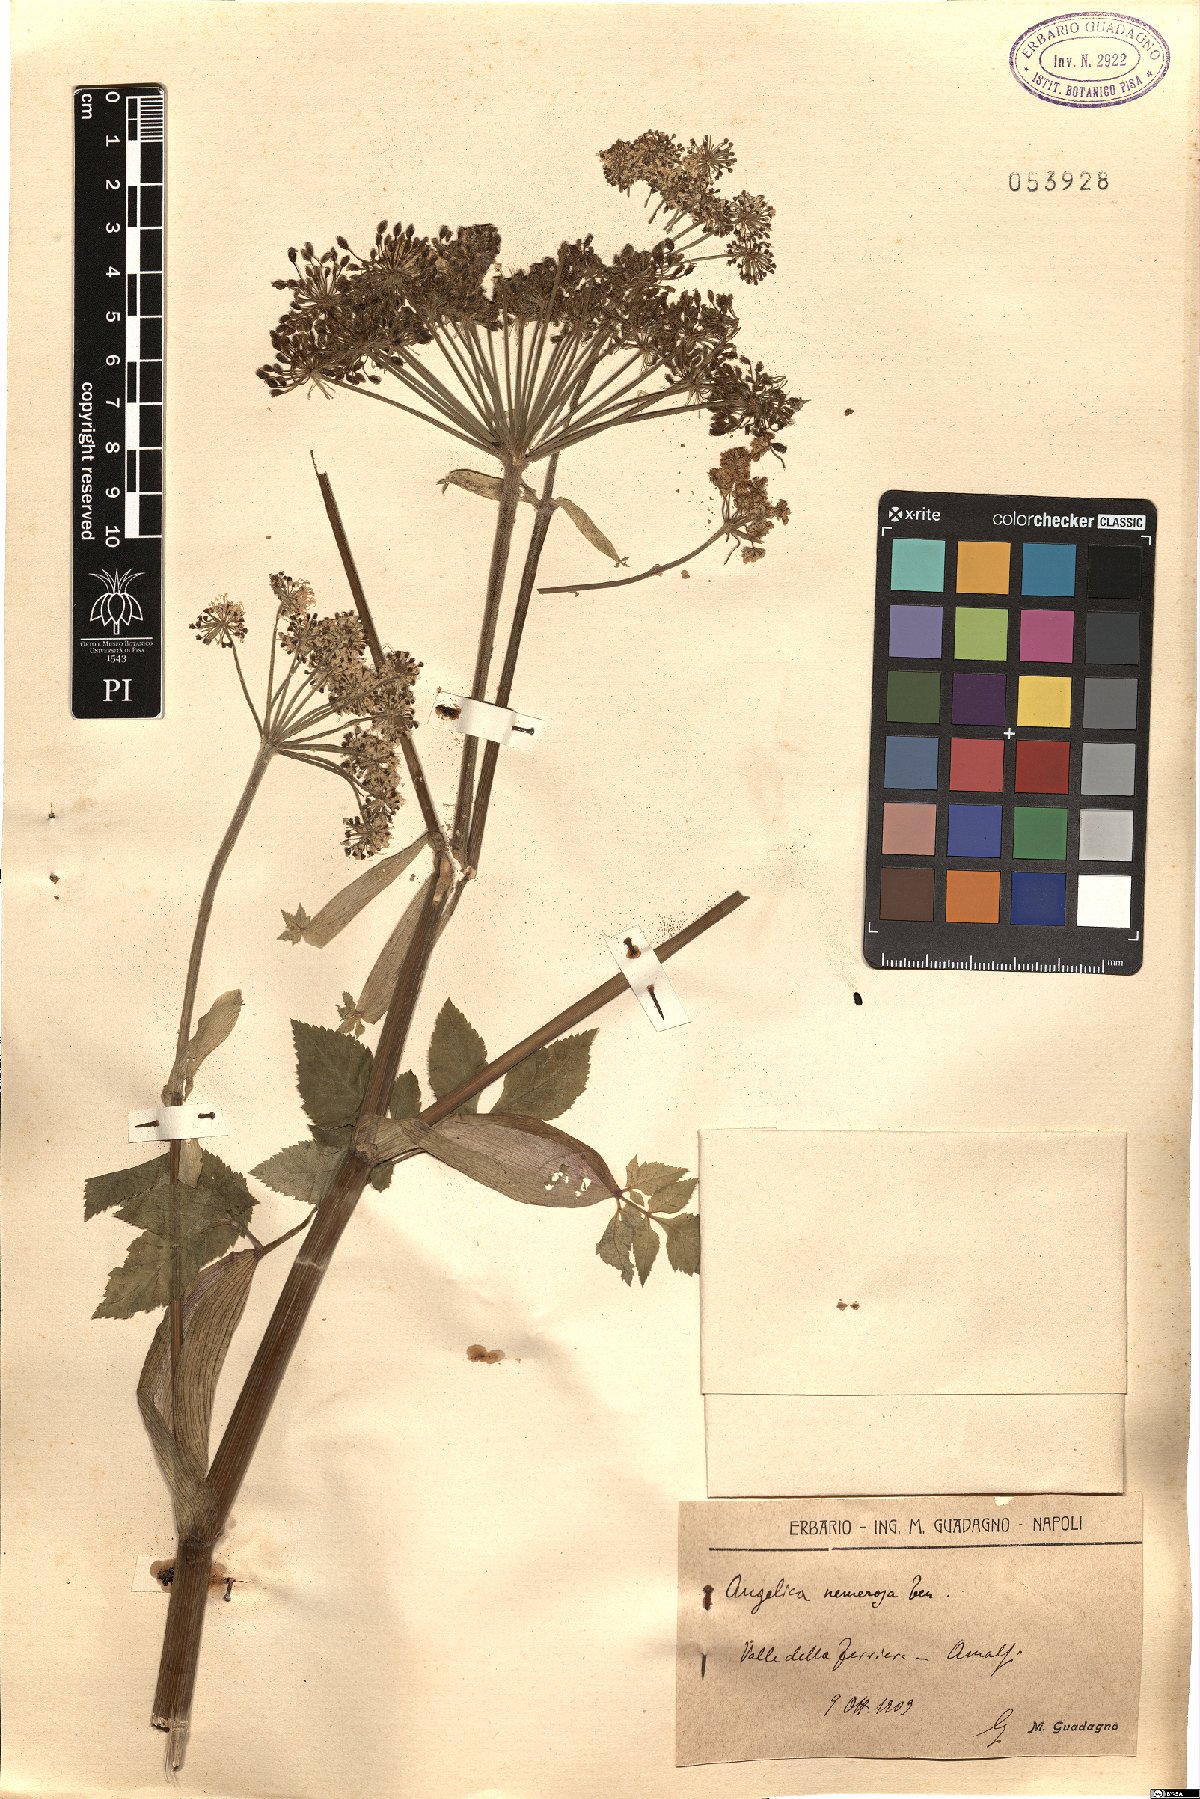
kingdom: Plantae
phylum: Tracheophyta
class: Magnoliopsida
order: Apiales
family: Apiaceae
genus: Angelica
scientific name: Angelica sylvestris
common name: Wild angelica
